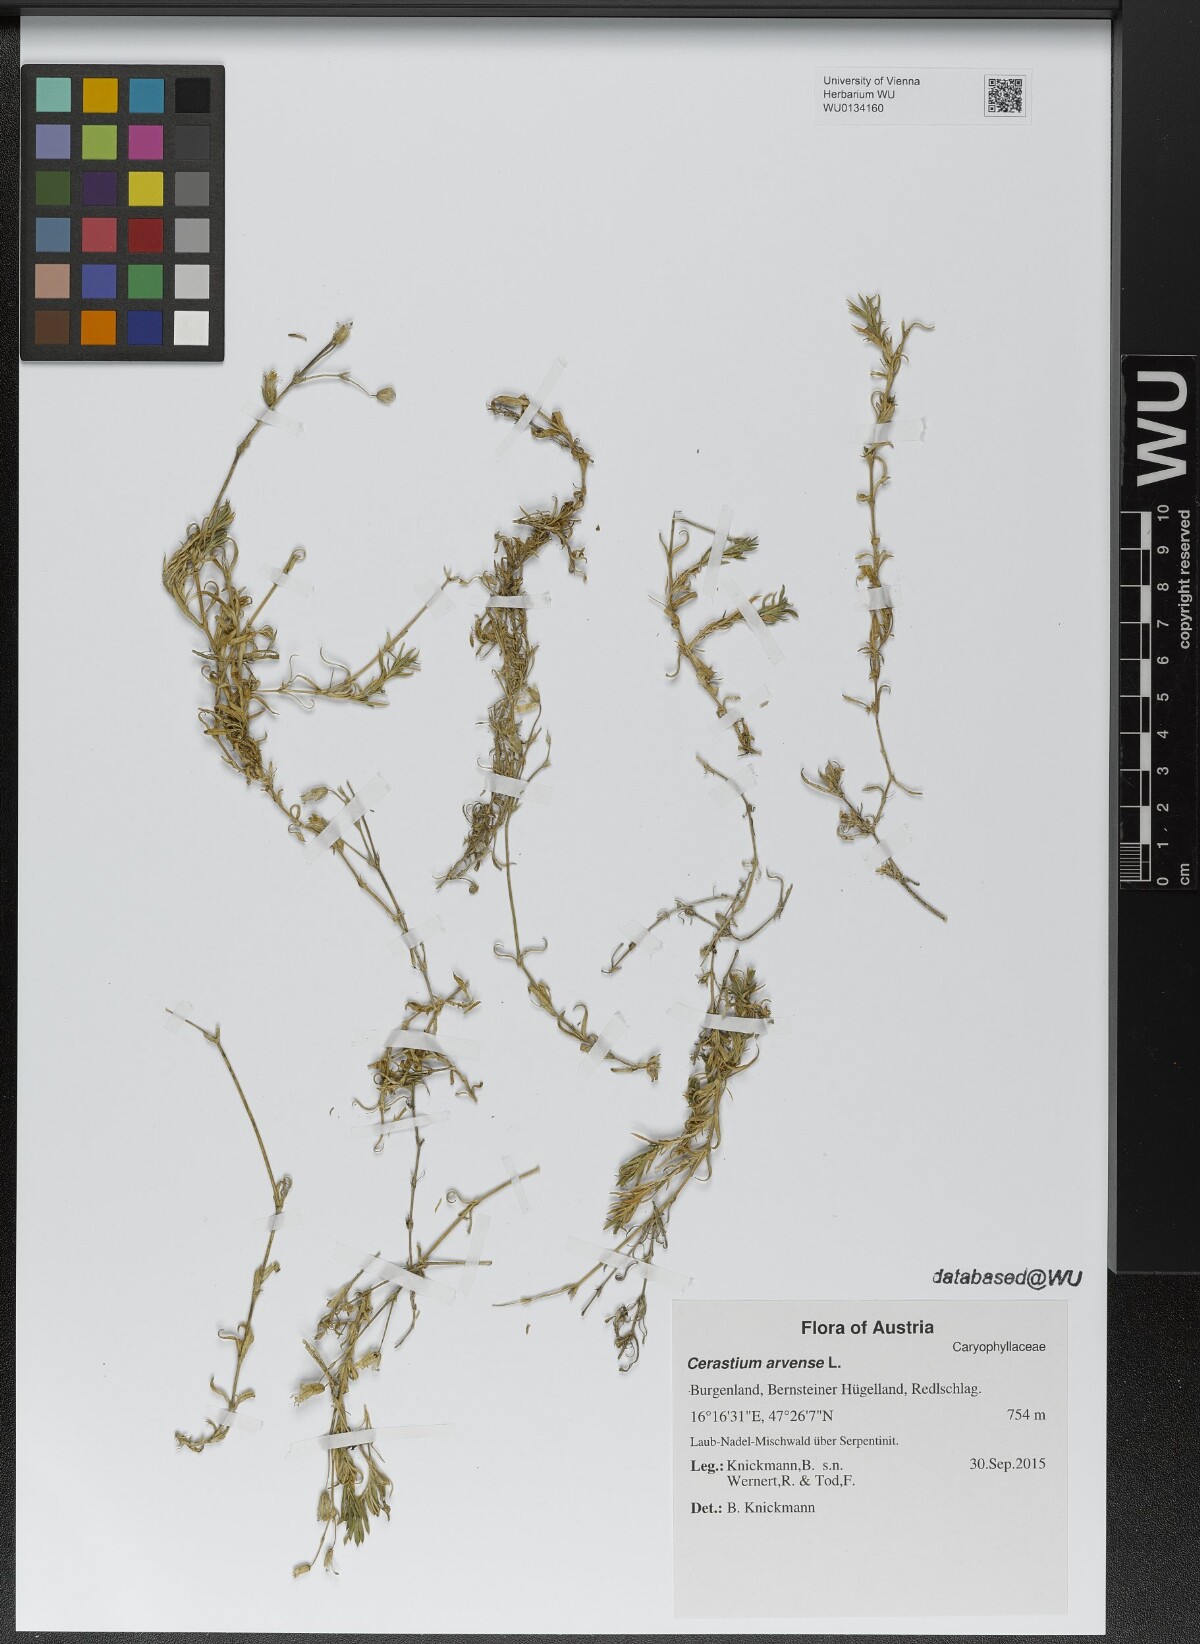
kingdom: Plantae
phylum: Tracheophyta
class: Magnoliopsida
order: Caryophyllales
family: Caryophyllaceae
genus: Cerastium
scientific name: Cerastium arvense
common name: Field mouse-ear
